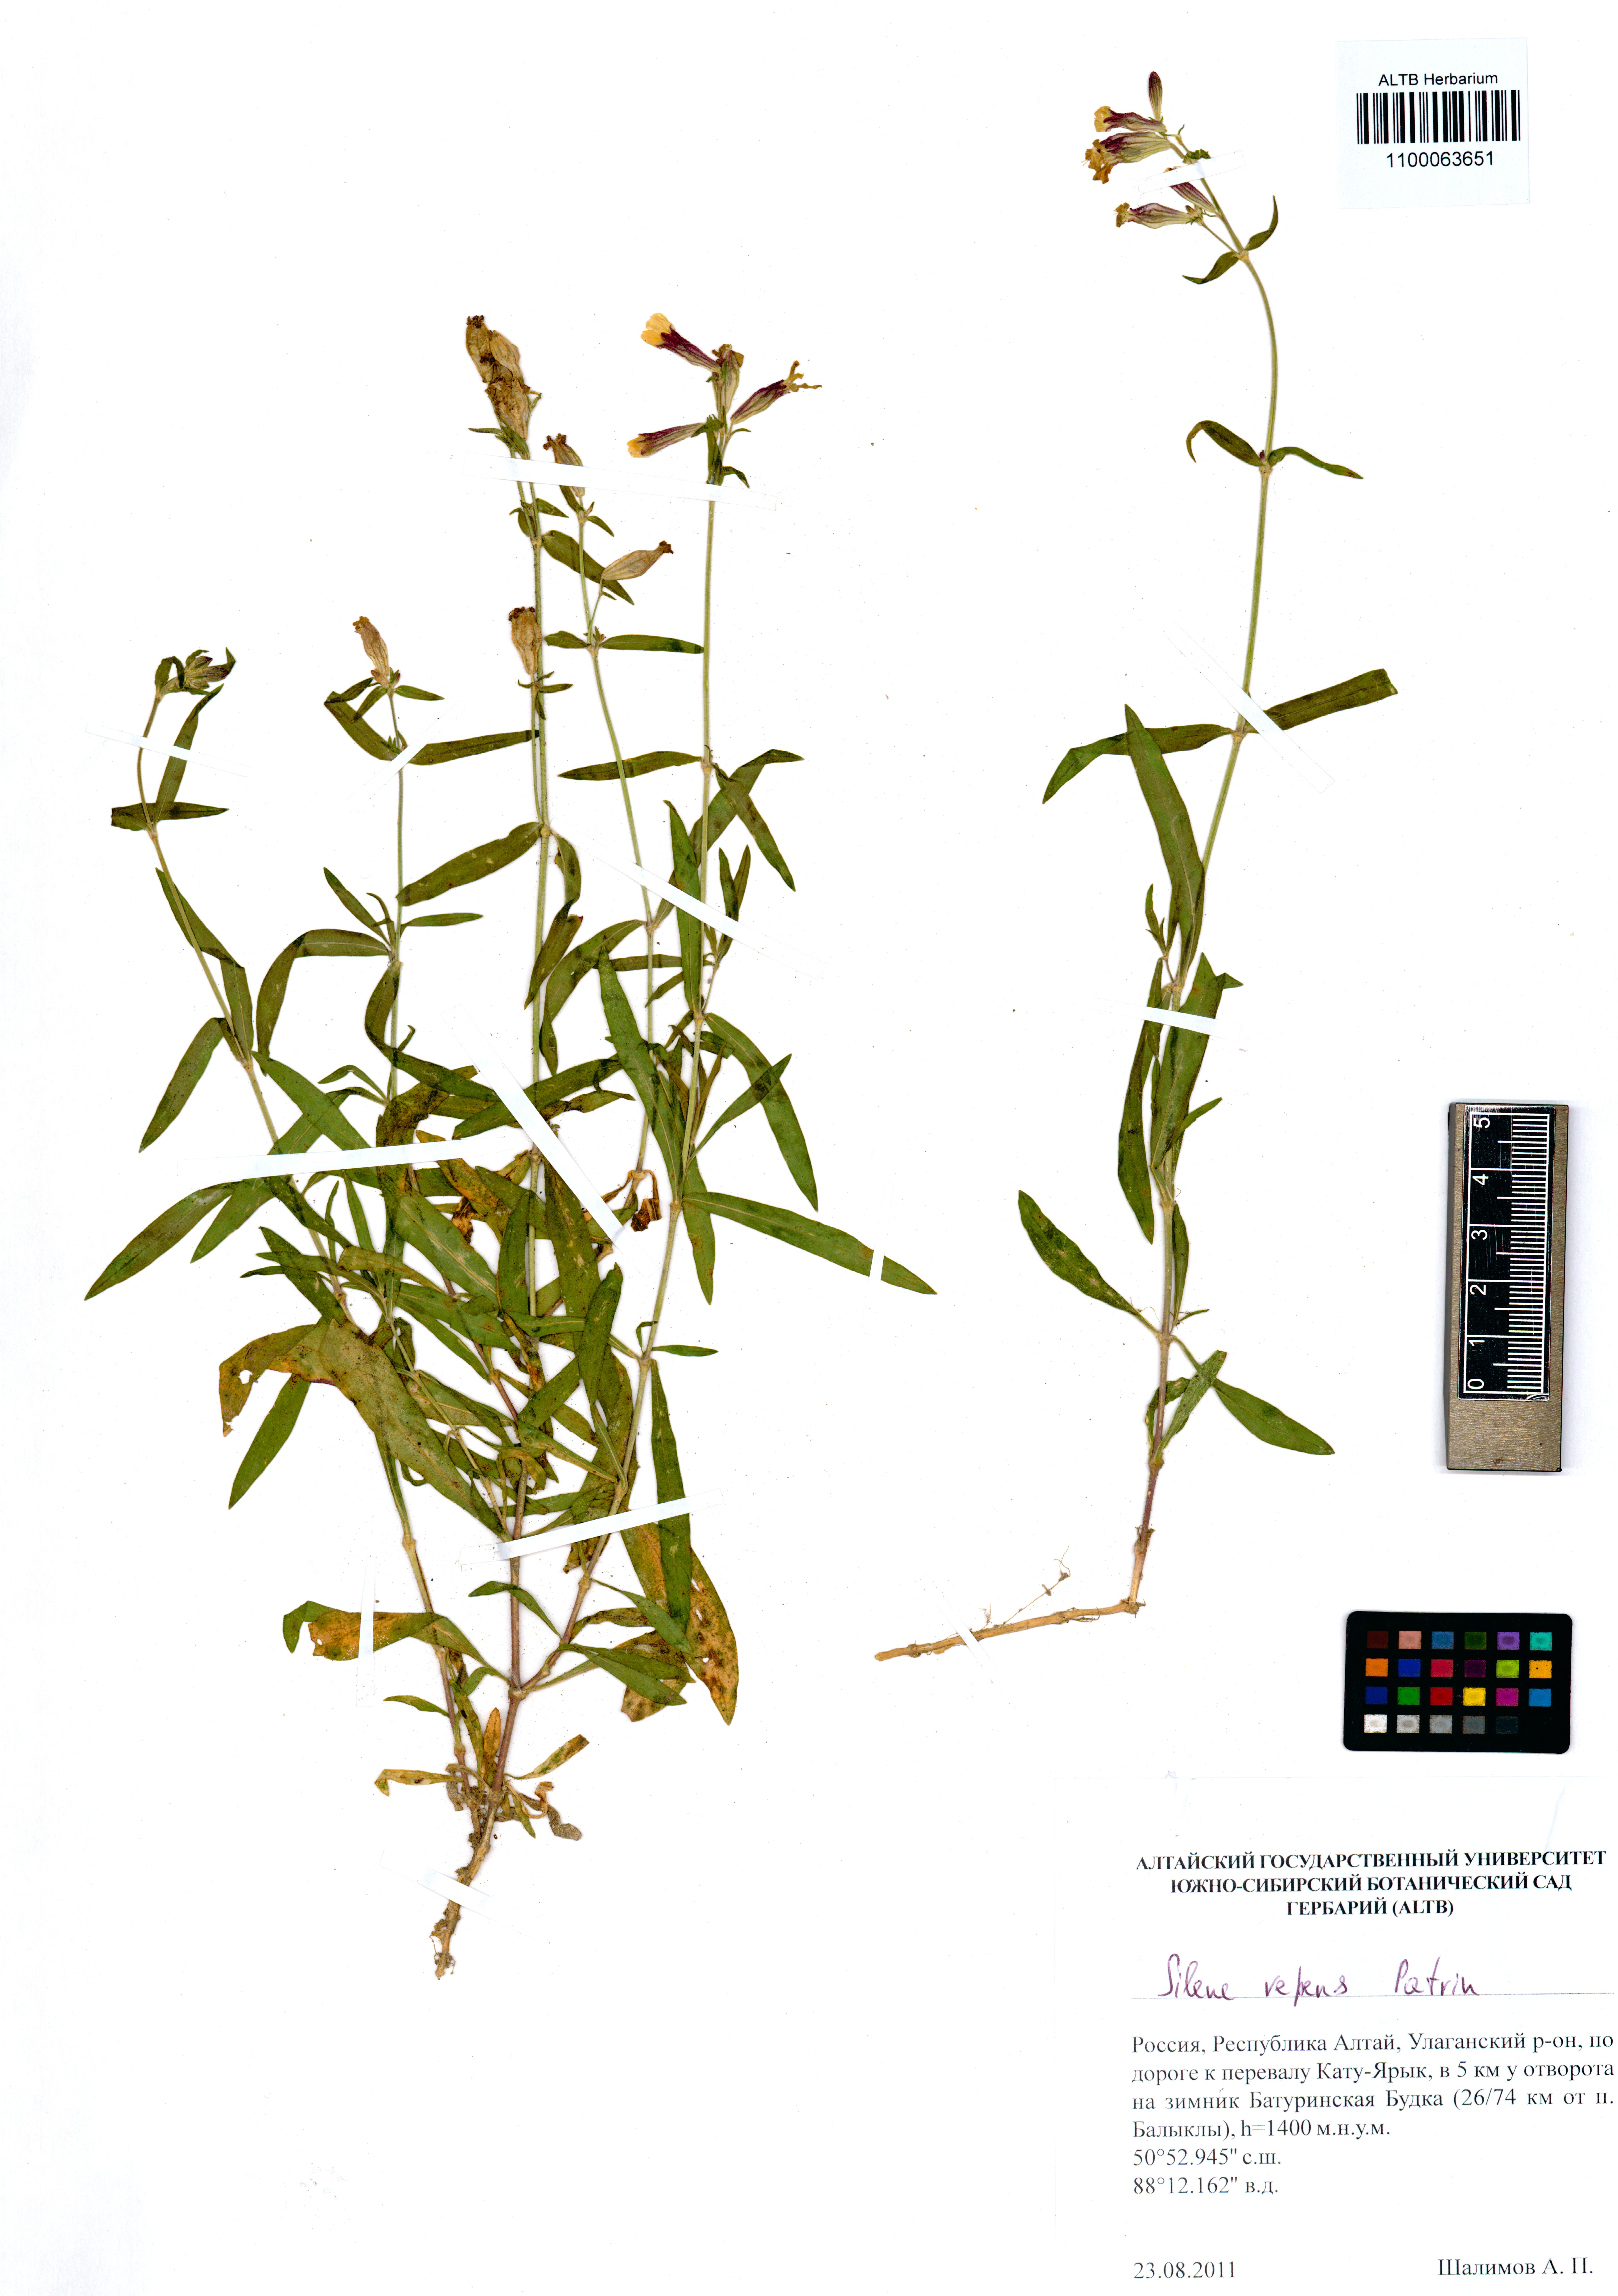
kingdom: Plantae
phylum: Tracheophyta
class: Magnoliopsida
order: Caryophyllales
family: Caryophyllaceae
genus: Silene
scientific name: Silene repens
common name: Pink campion
